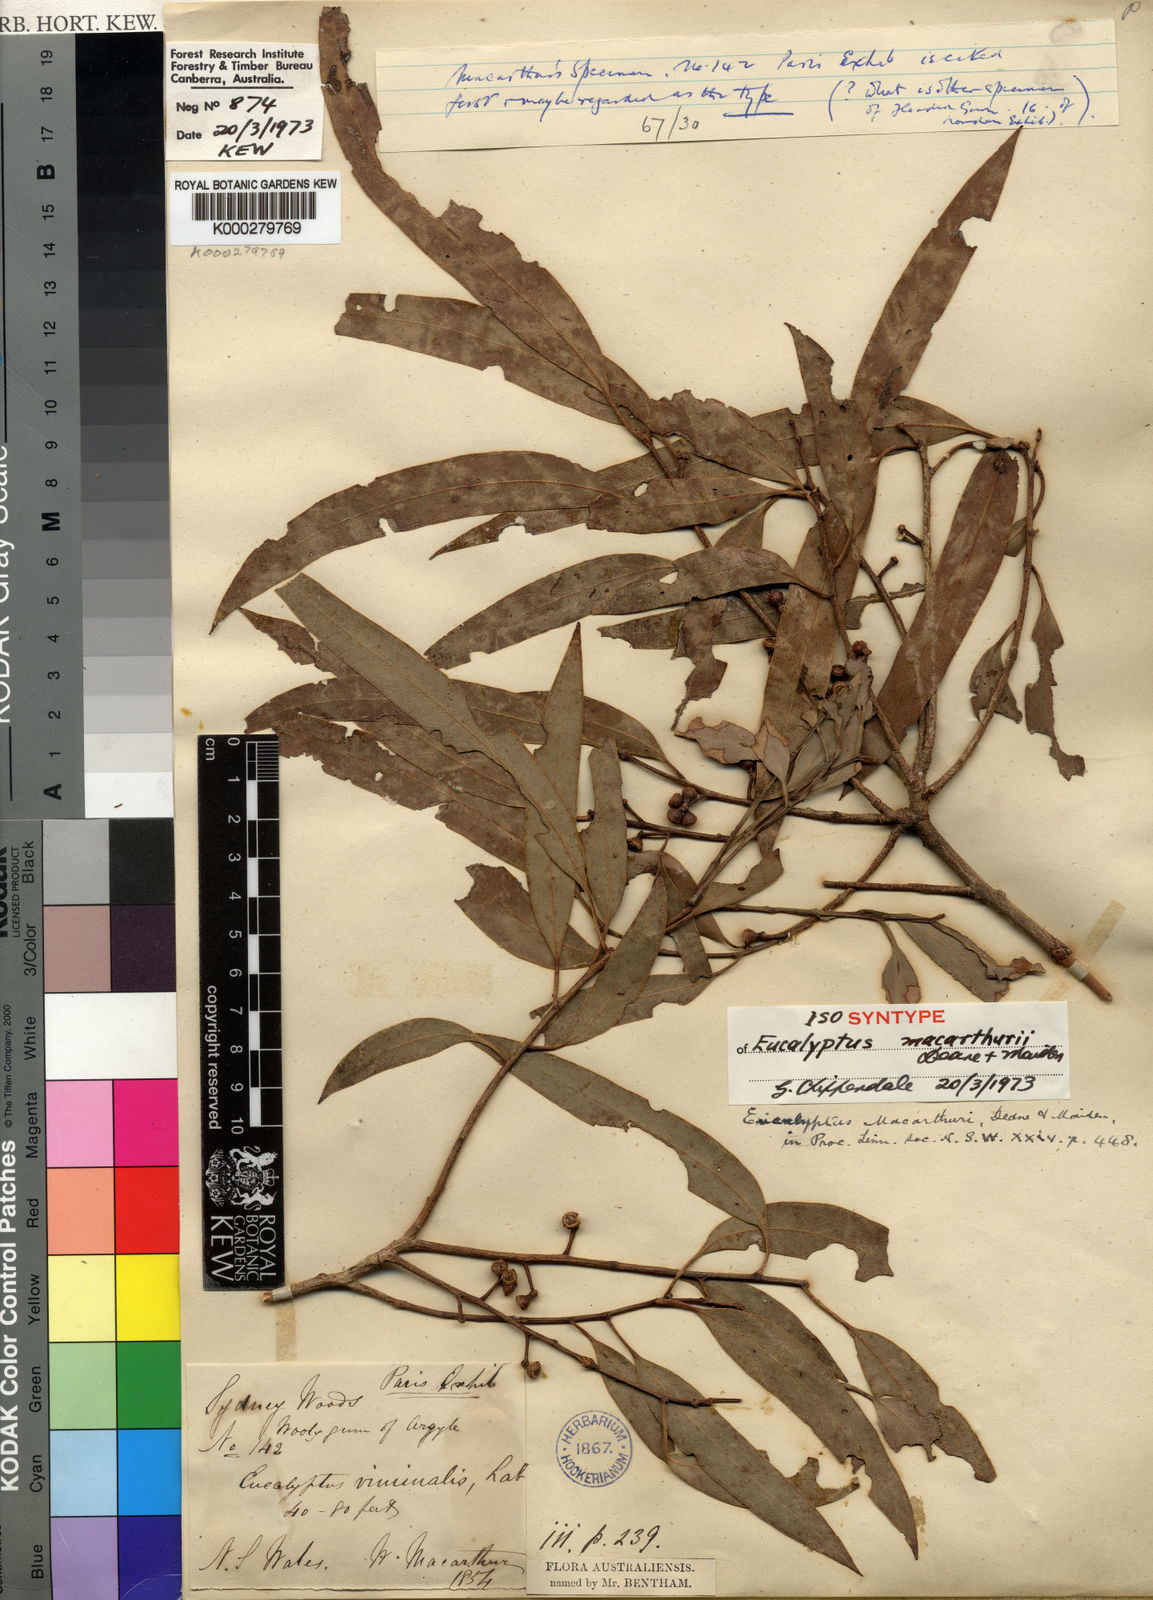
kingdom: Plantae
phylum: Tracheophyta
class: Magnoliopsida
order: Myrtales
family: Myrtaceae
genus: Eucalyptus
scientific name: Eucalyptus macarthurii
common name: Camden-woollybutt
